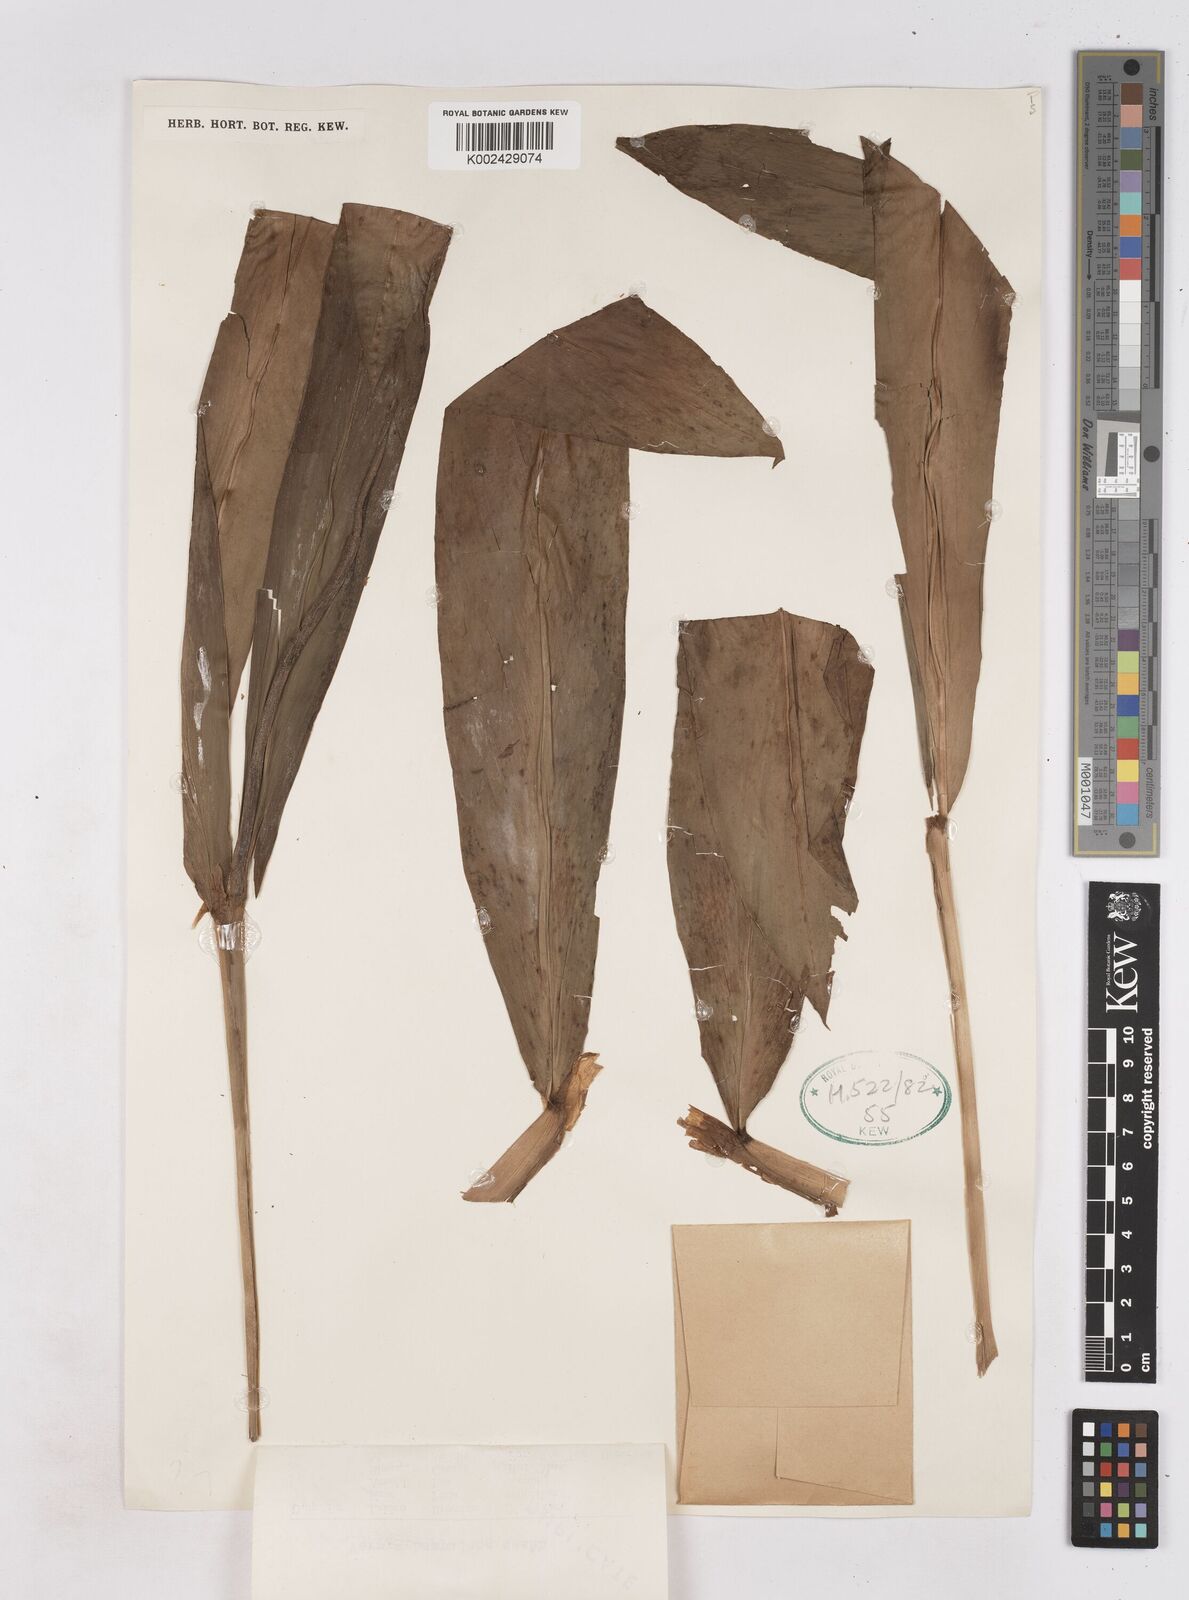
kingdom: Plantae
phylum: Tracheophyta
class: Liliopsida
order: Zingiberales
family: Zingiberaceae
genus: Zingiber
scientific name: Zingiber zerumbet
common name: Bitter ginger
